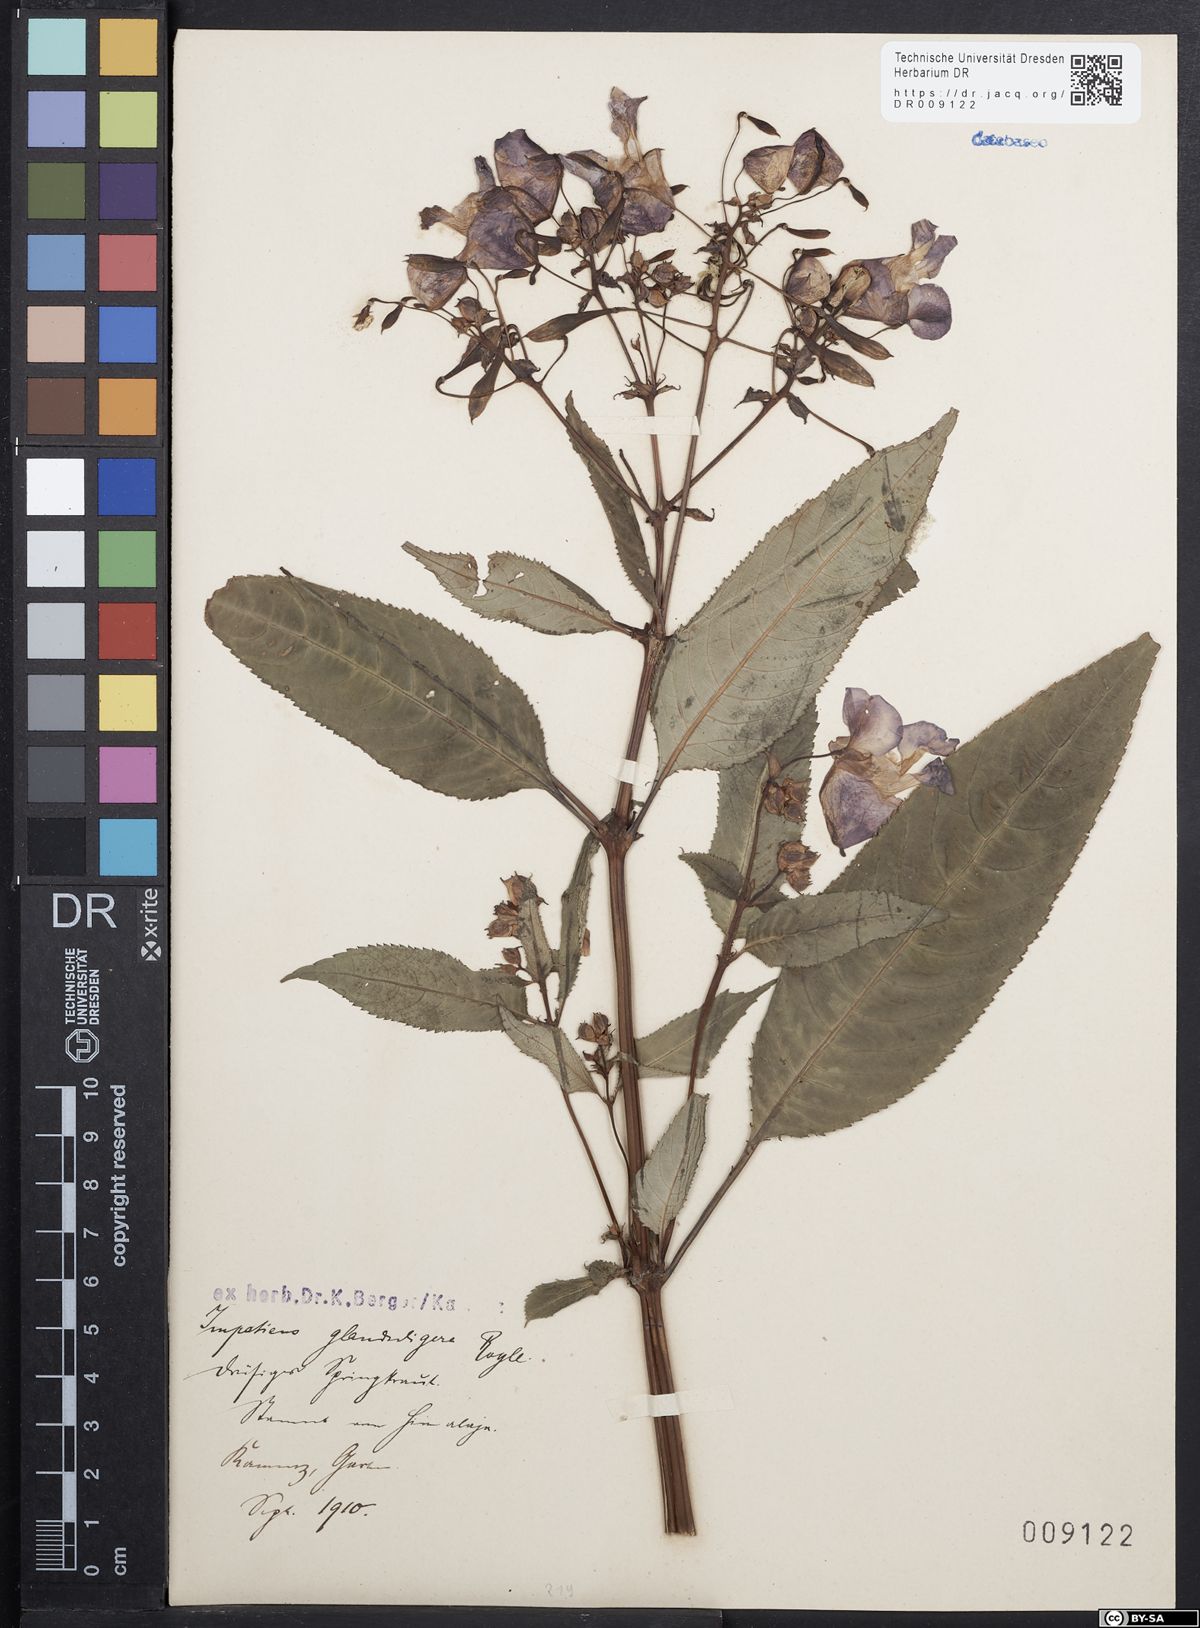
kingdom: Plantae
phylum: Tracheophyta
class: Magnoliopsida
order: Ericales
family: Balsaminaceae
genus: Impatiens
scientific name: Impatiens glandulifera
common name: Himalayan balsam
